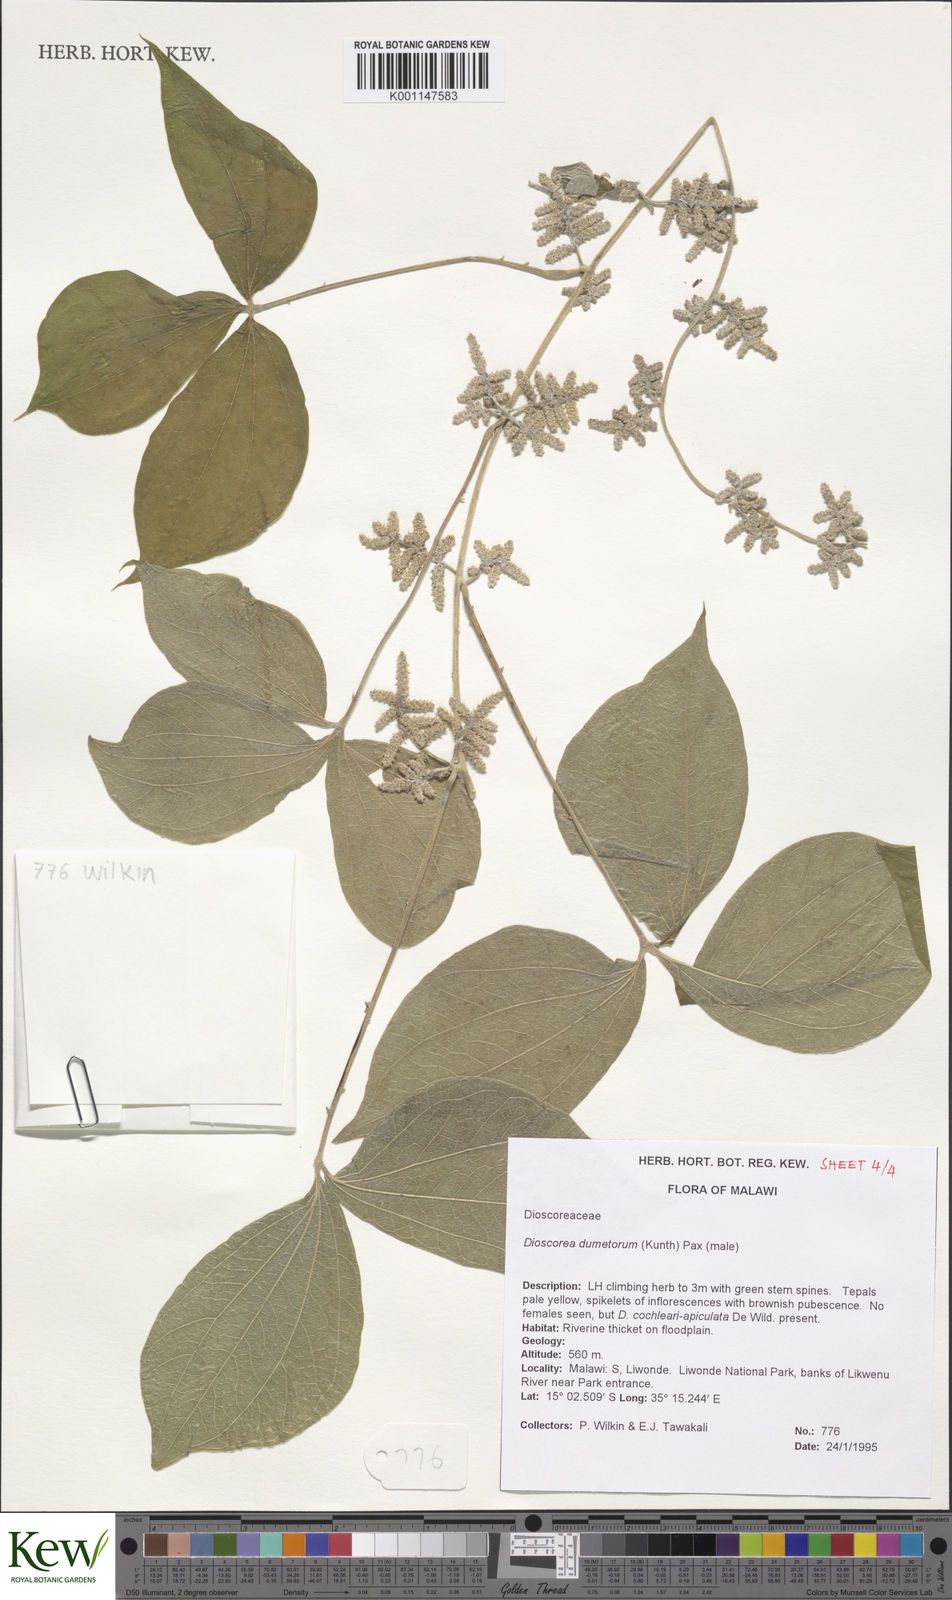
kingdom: Plantae
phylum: Tracheophyta
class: Liliopsida
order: Dioscoreales
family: Dioscoreaceae
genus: Dioscorea
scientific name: Dioscorea dumetorum
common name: African bitter yam
